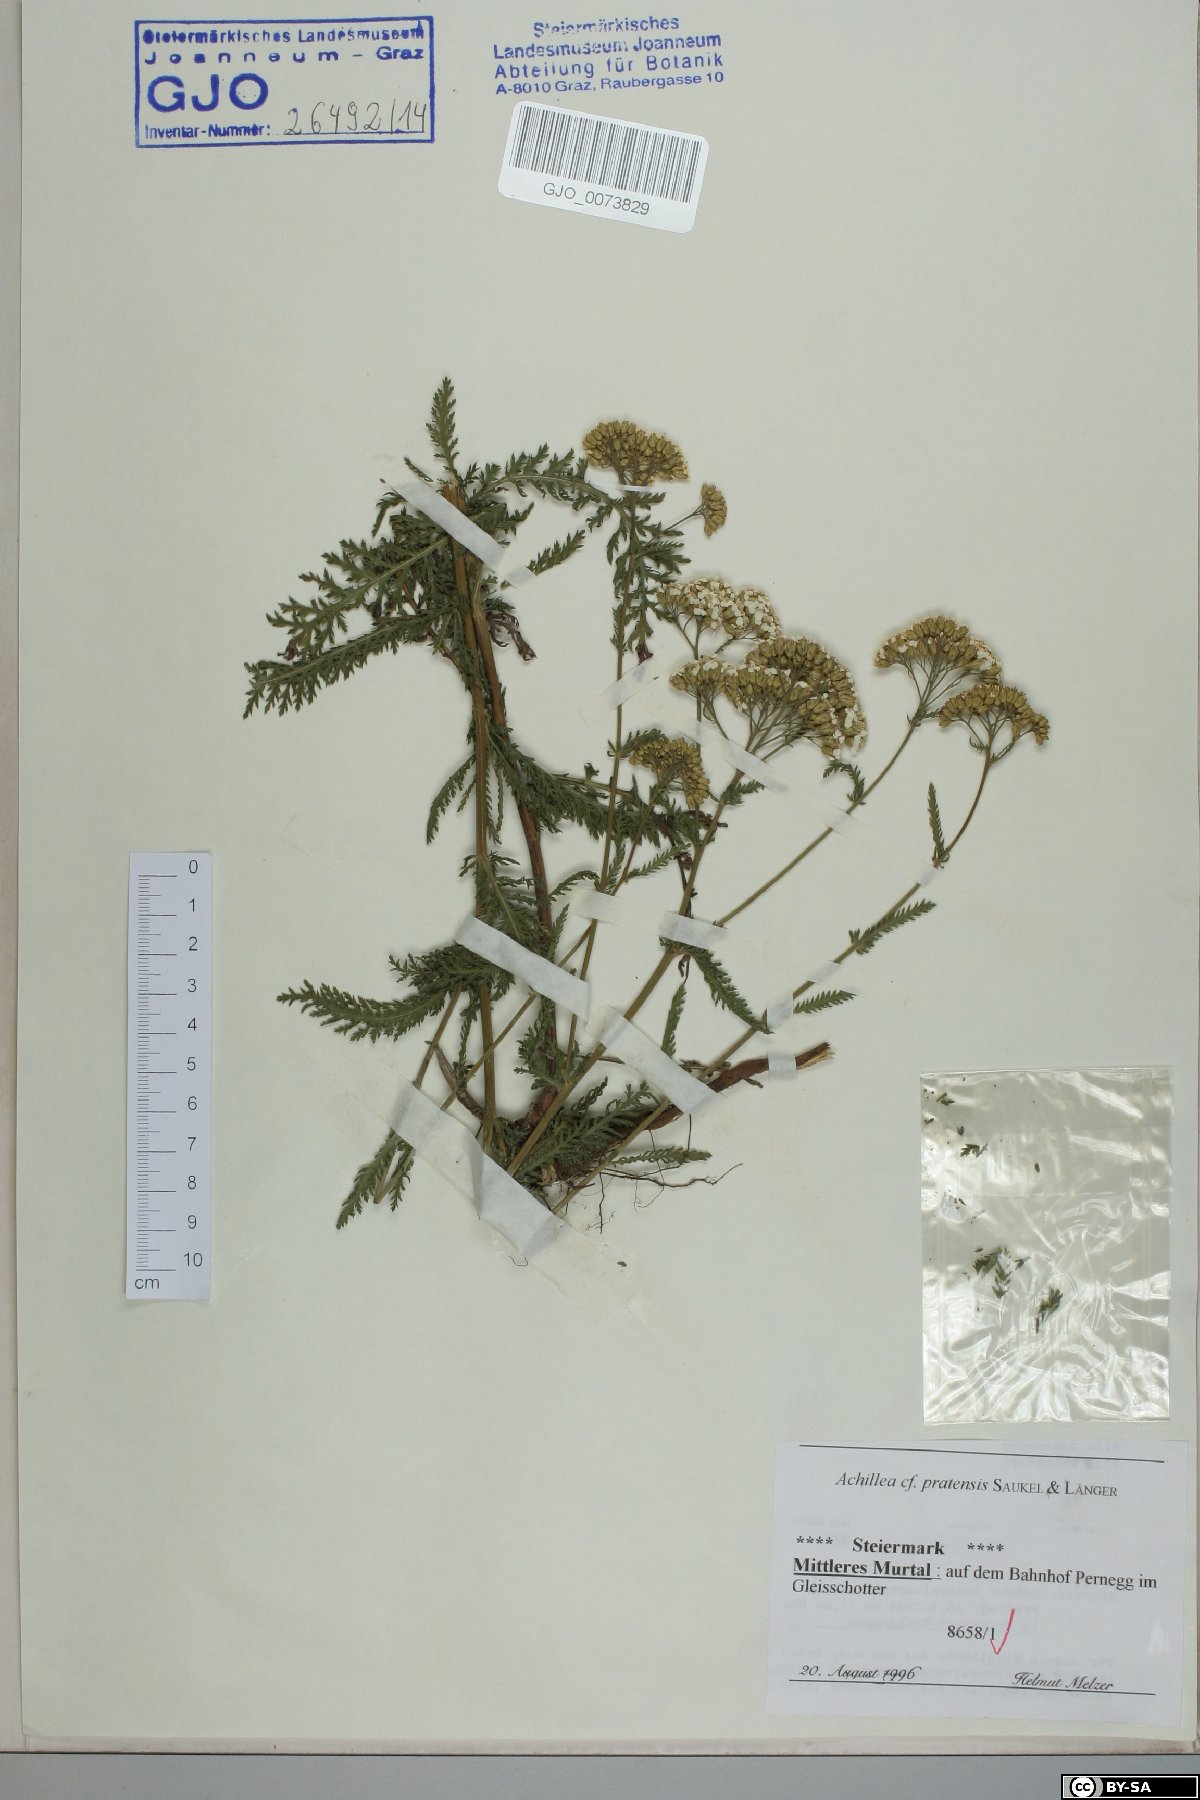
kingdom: Plantae
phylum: Tracheophyta
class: Magnoliopsida
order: Asterales
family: Asteraceae
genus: Achillea
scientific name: Achillea pratensis
